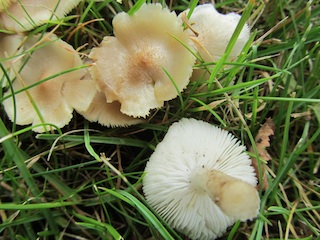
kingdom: Fungi
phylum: Basidiomycota
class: Agaricomycetes
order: Agaricales
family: Tricholomataceae
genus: Tricholoma
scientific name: Tricholoma argyraceum
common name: spids ridderhat
